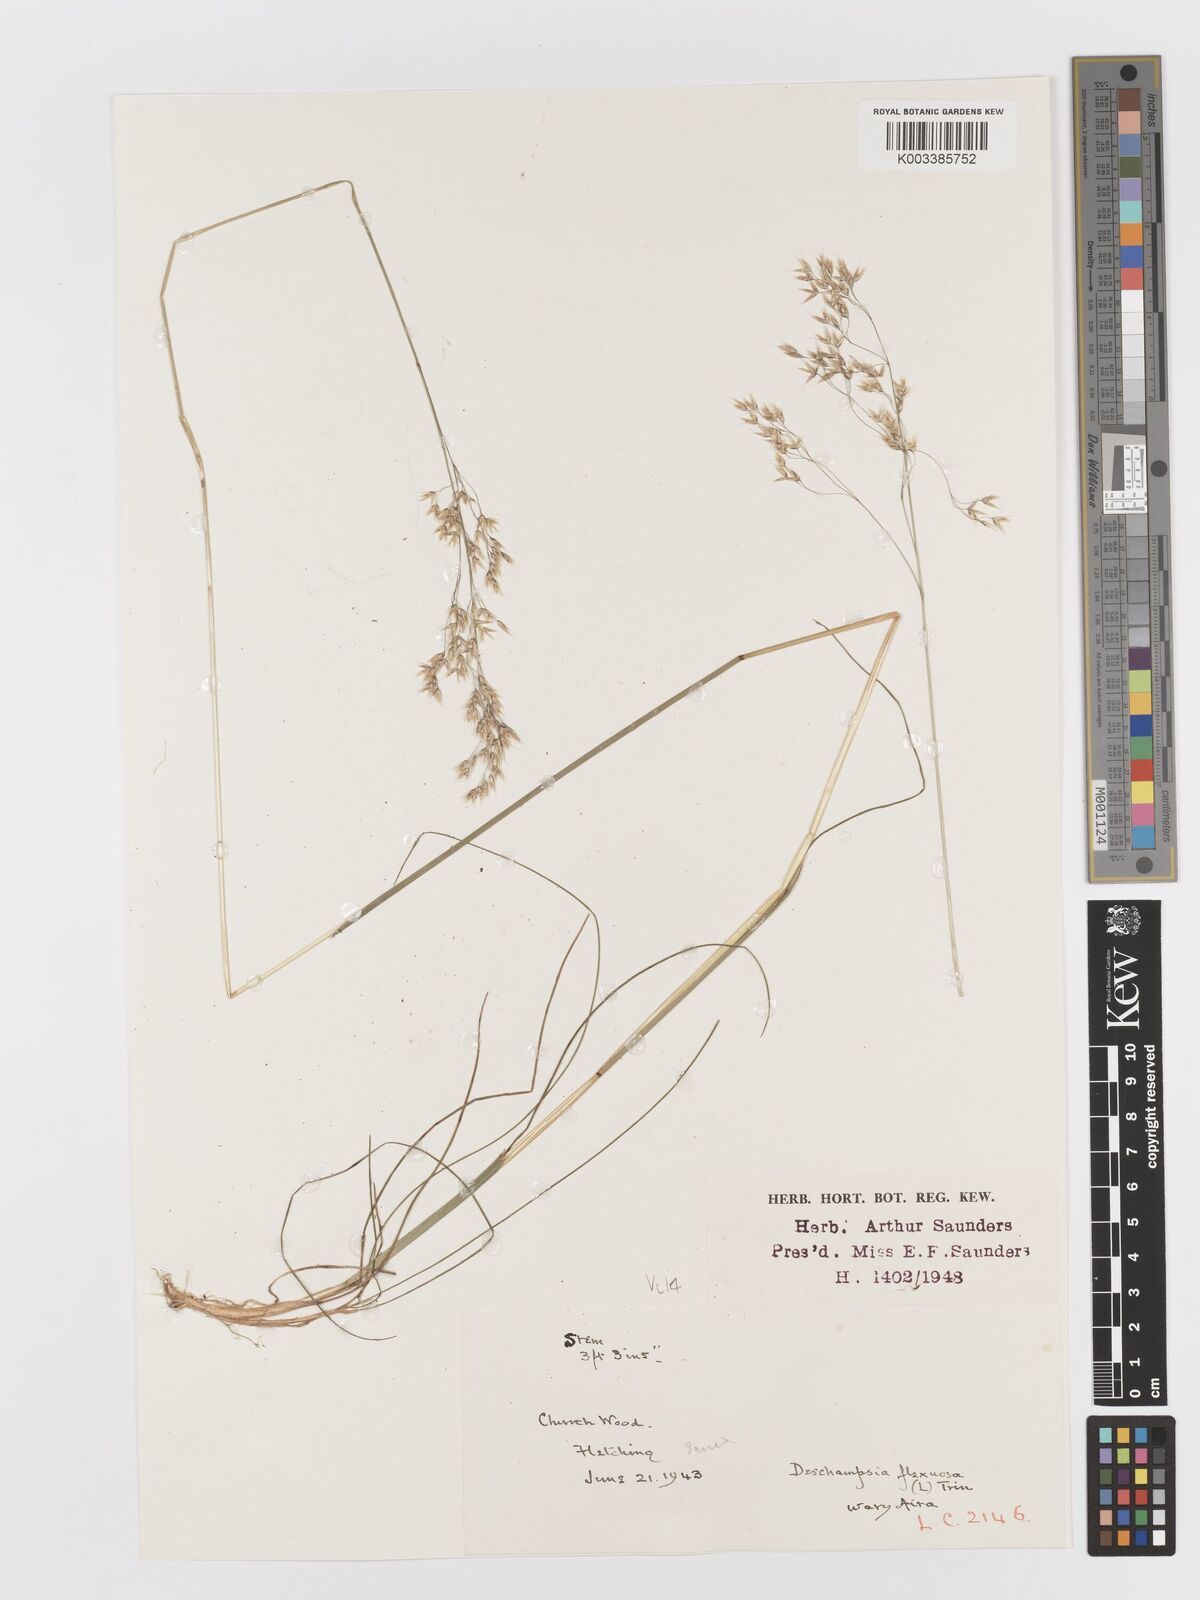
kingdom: Plantae
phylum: Tracheophyta
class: Liliopsida
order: Poales
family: Poaceae
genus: Avenella
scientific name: Avenella flexuosa
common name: Wavy hairgrass
